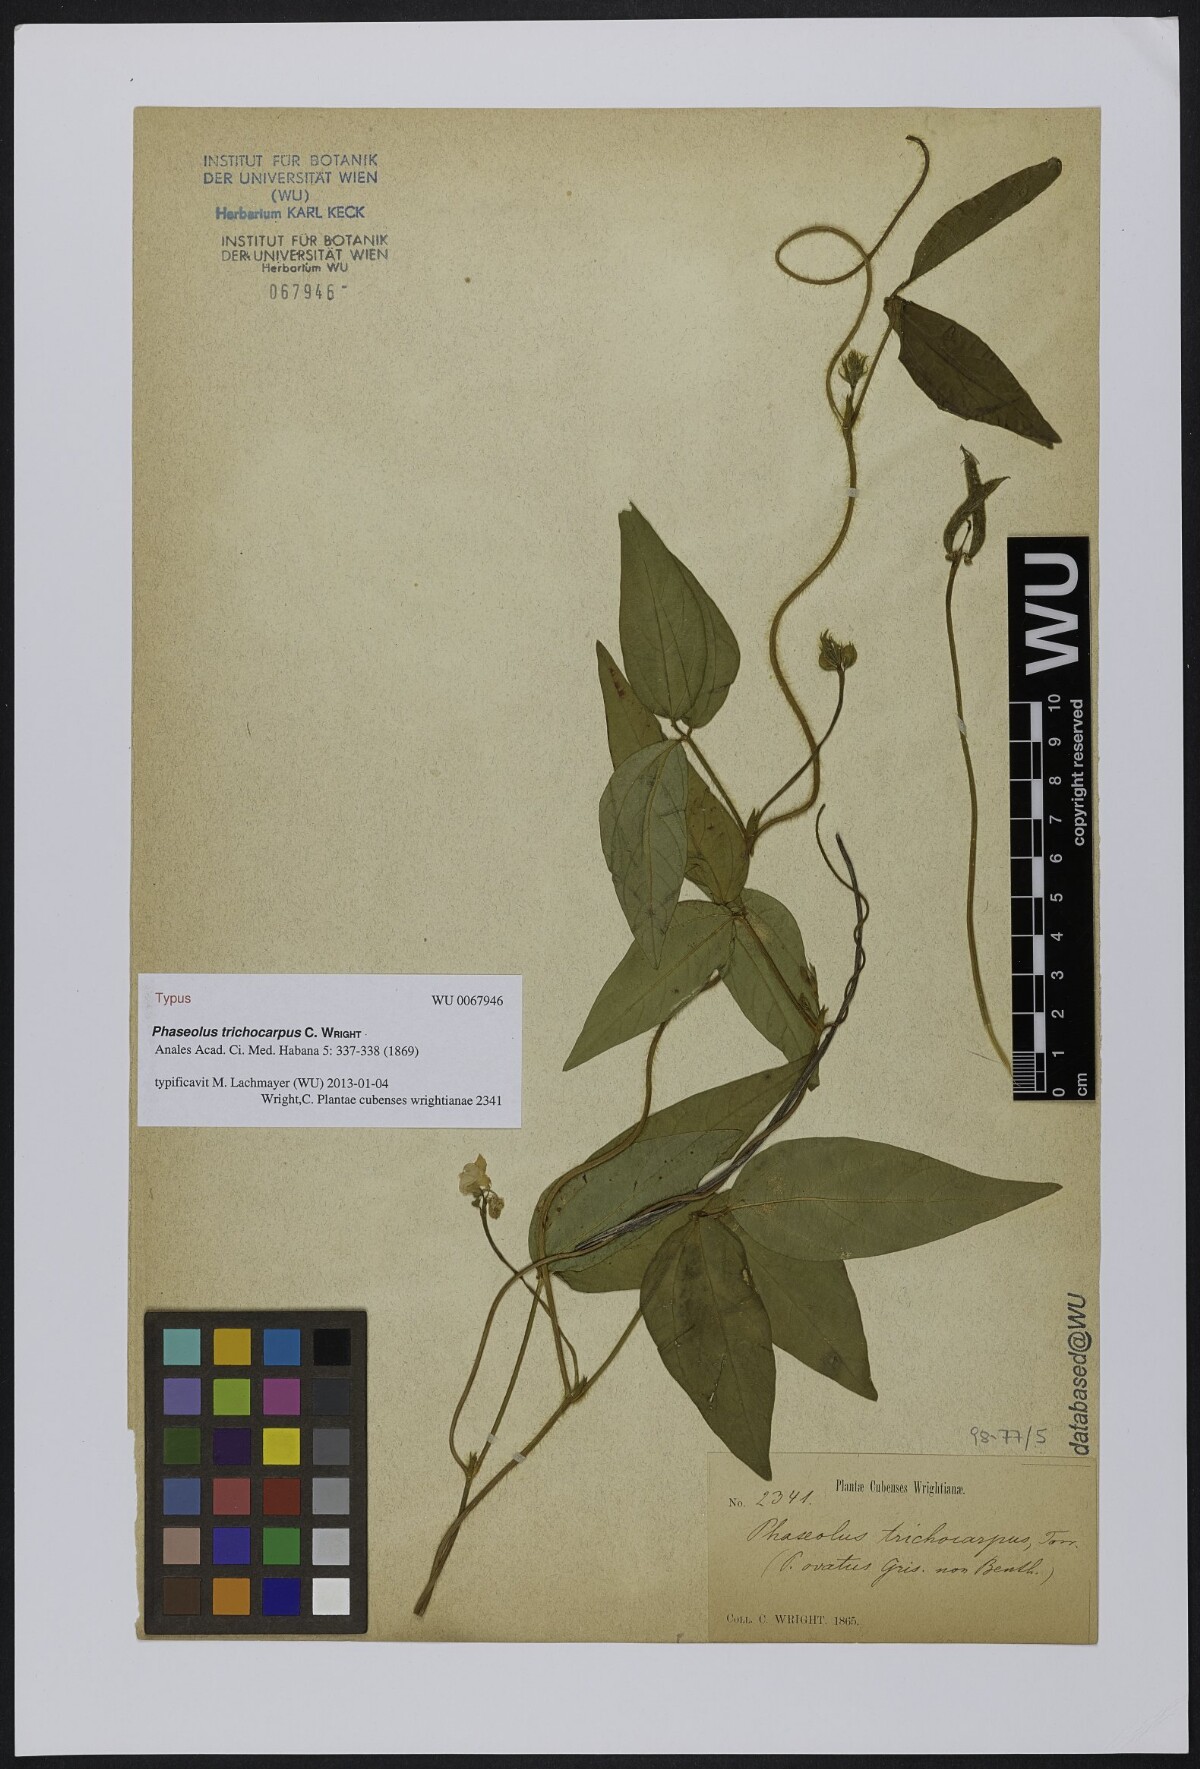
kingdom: Plantae
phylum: Tracheophyta
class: Magnoliopsida
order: Fabales
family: Fabaceae
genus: Vigna
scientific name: Vigna trichocarpa
